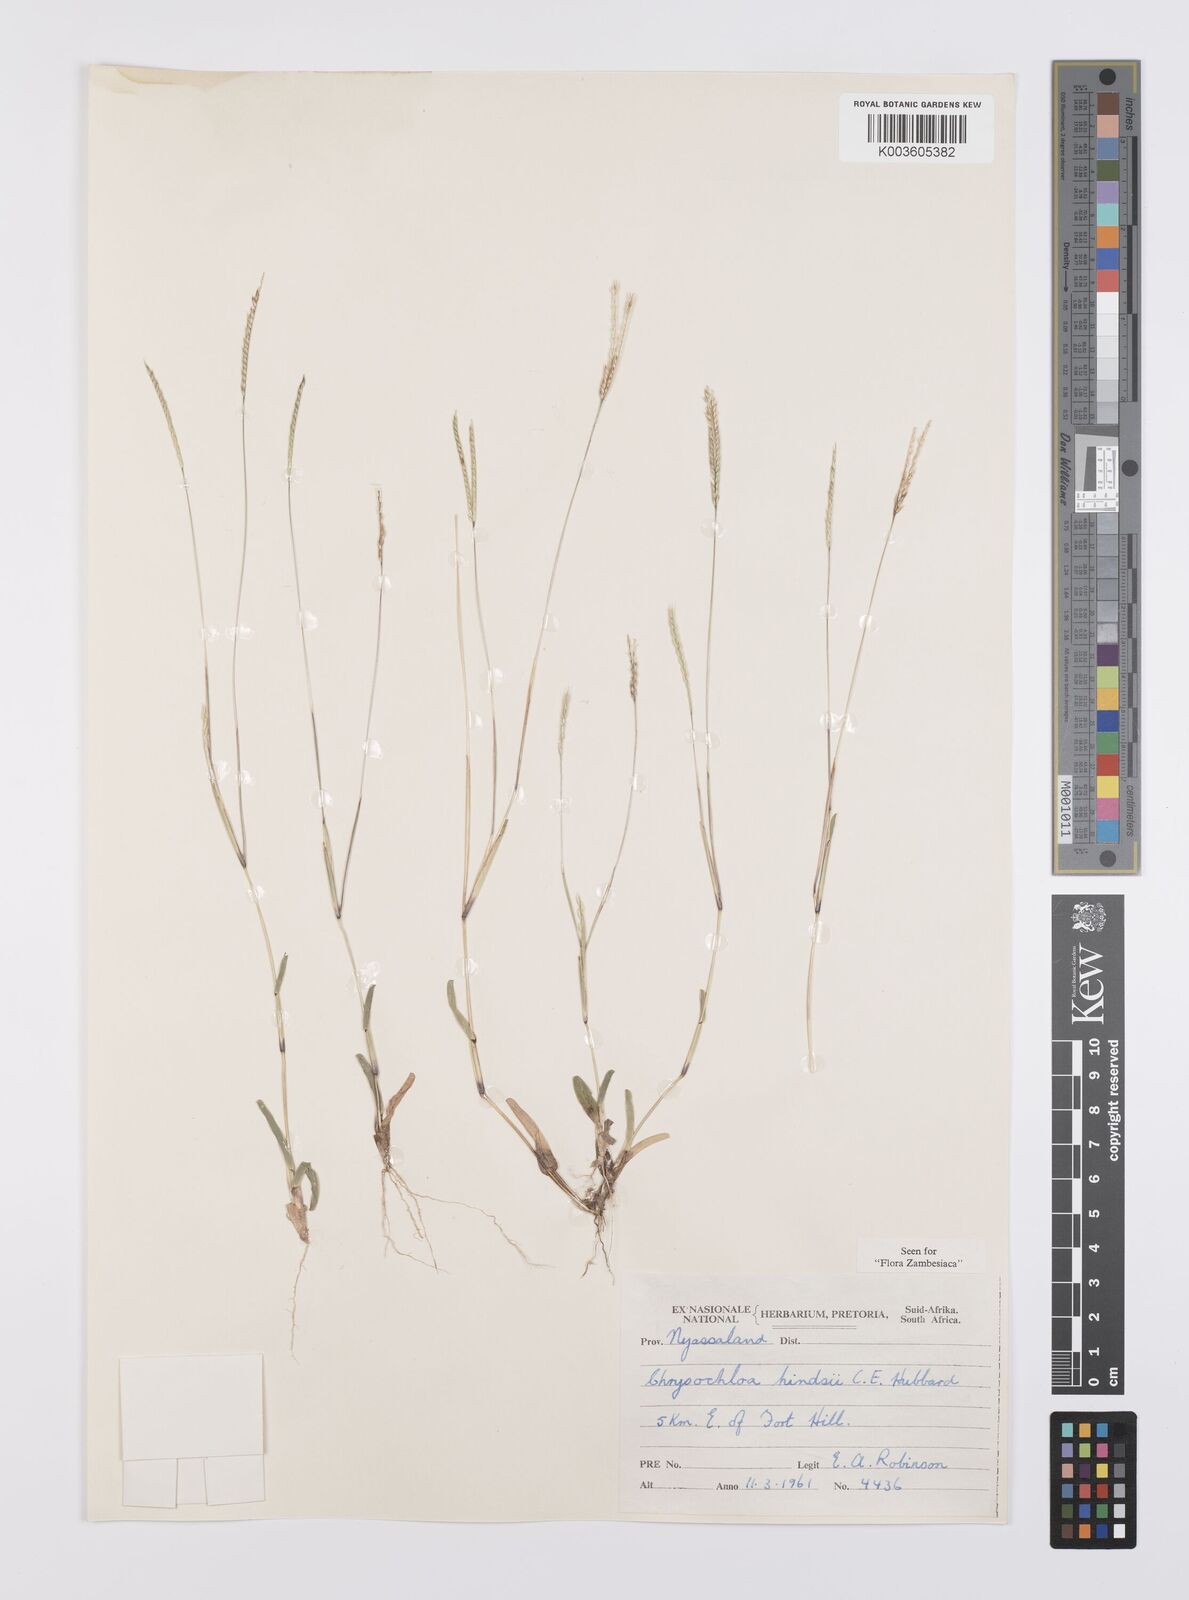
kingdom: Plantae
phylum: Tracheophyta
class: Liliopsida
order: Poales
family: Poaceae
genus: Chrysochloa
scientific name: Chrysochloa hindsii
